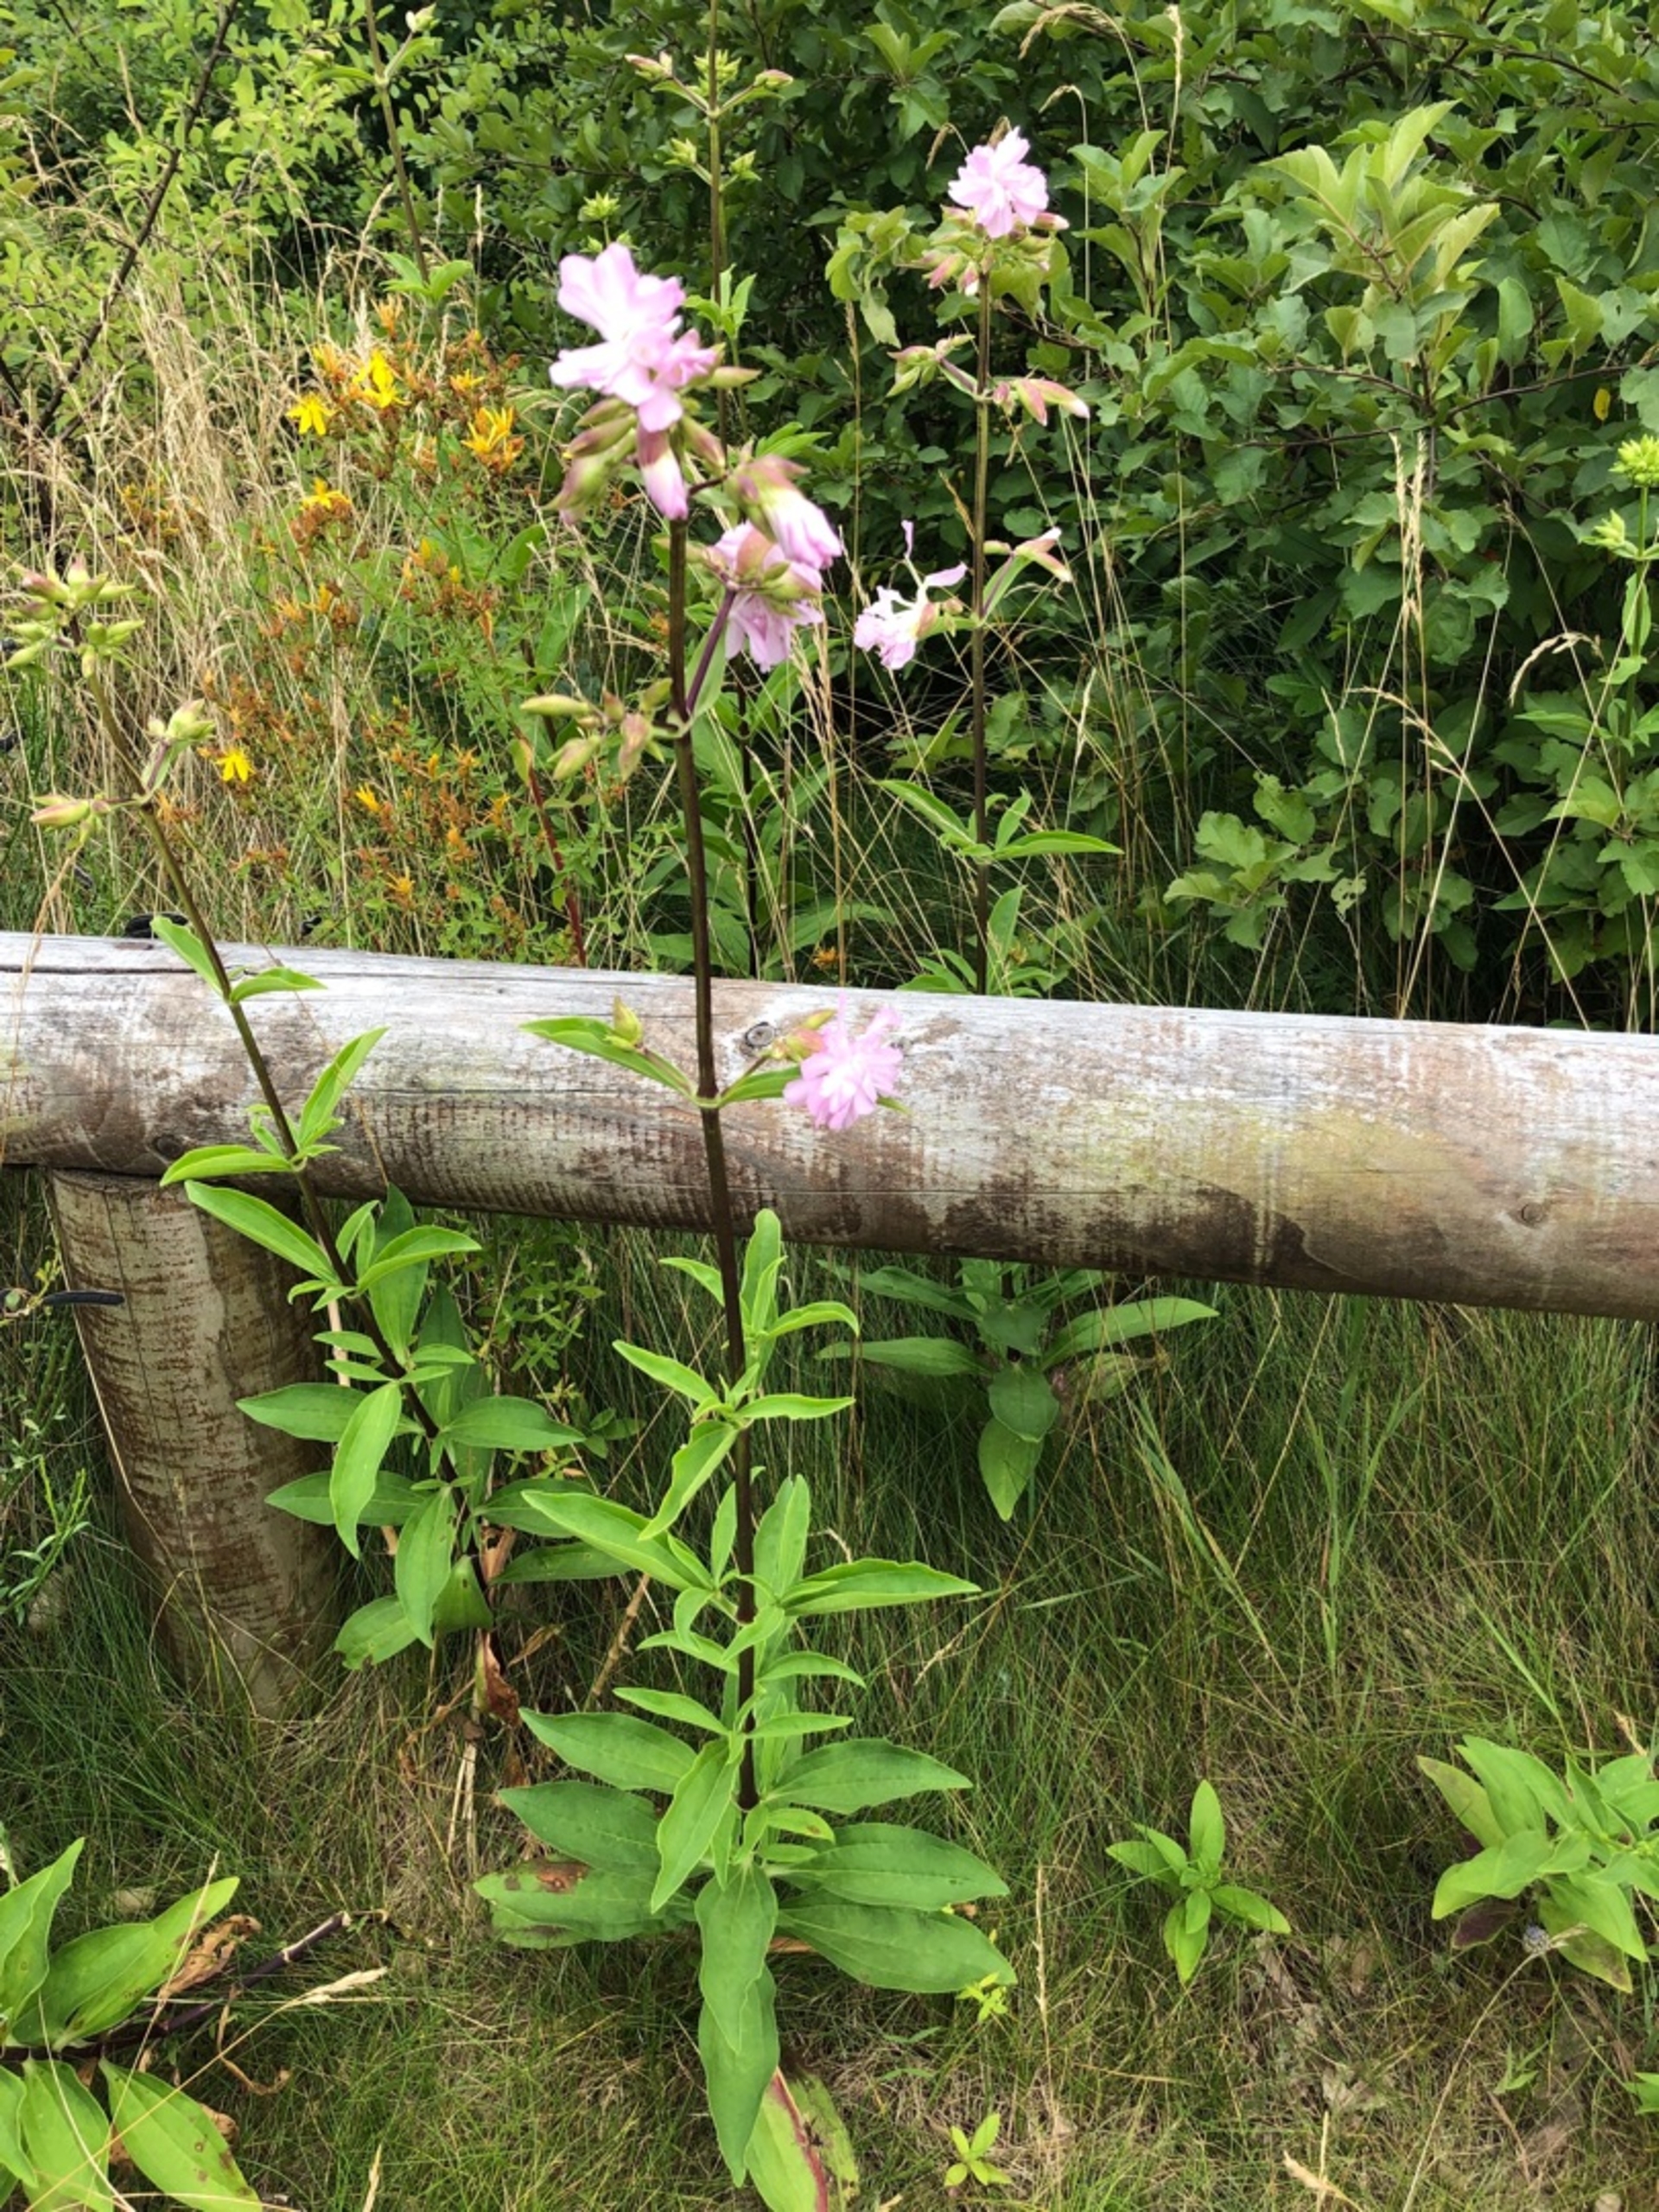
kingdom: Plantae
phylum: Tracheophyta
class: Magnoliopsida
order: Caryophyllales
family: Caryophyllaceae
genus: Saponaria
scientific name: Saponaria officinalis
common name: Sæbeurt
